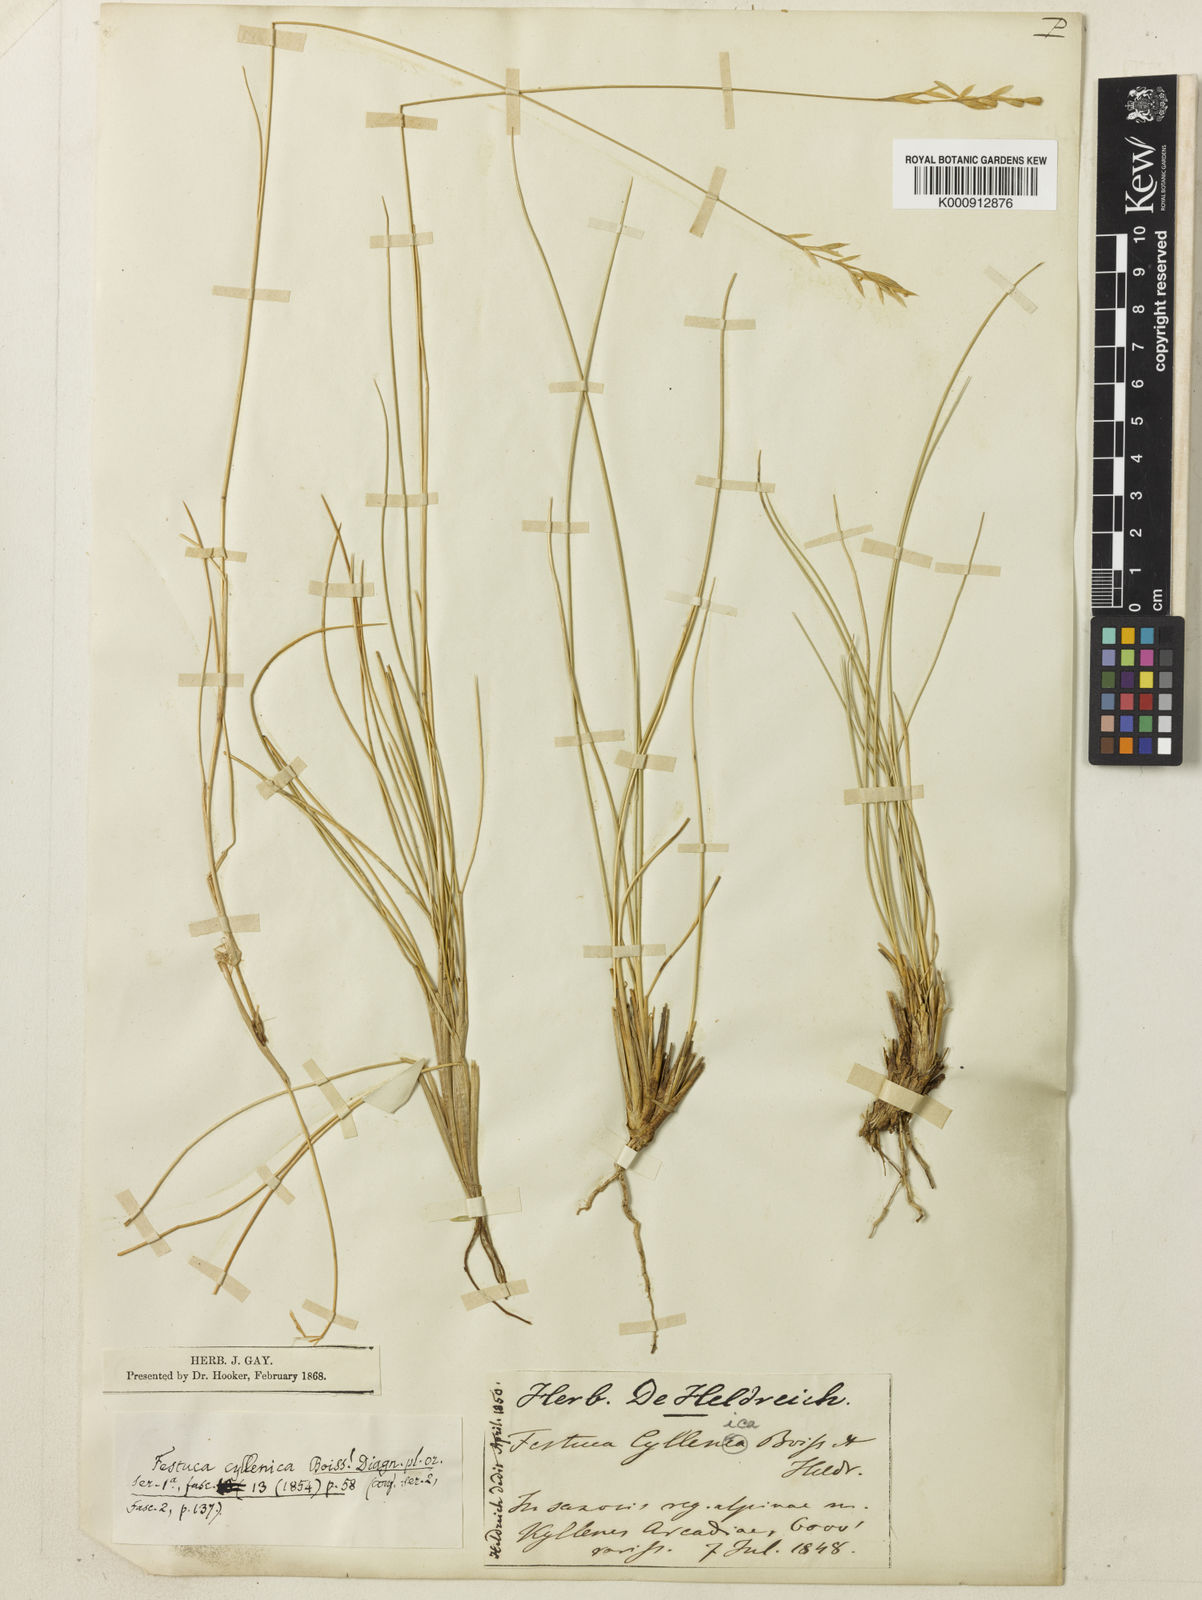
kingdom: Plantae
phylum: Tracheophyta
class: Liliopsida
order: Poales
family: Poaceae
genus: Festuca
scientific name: Festuca cyllenica
